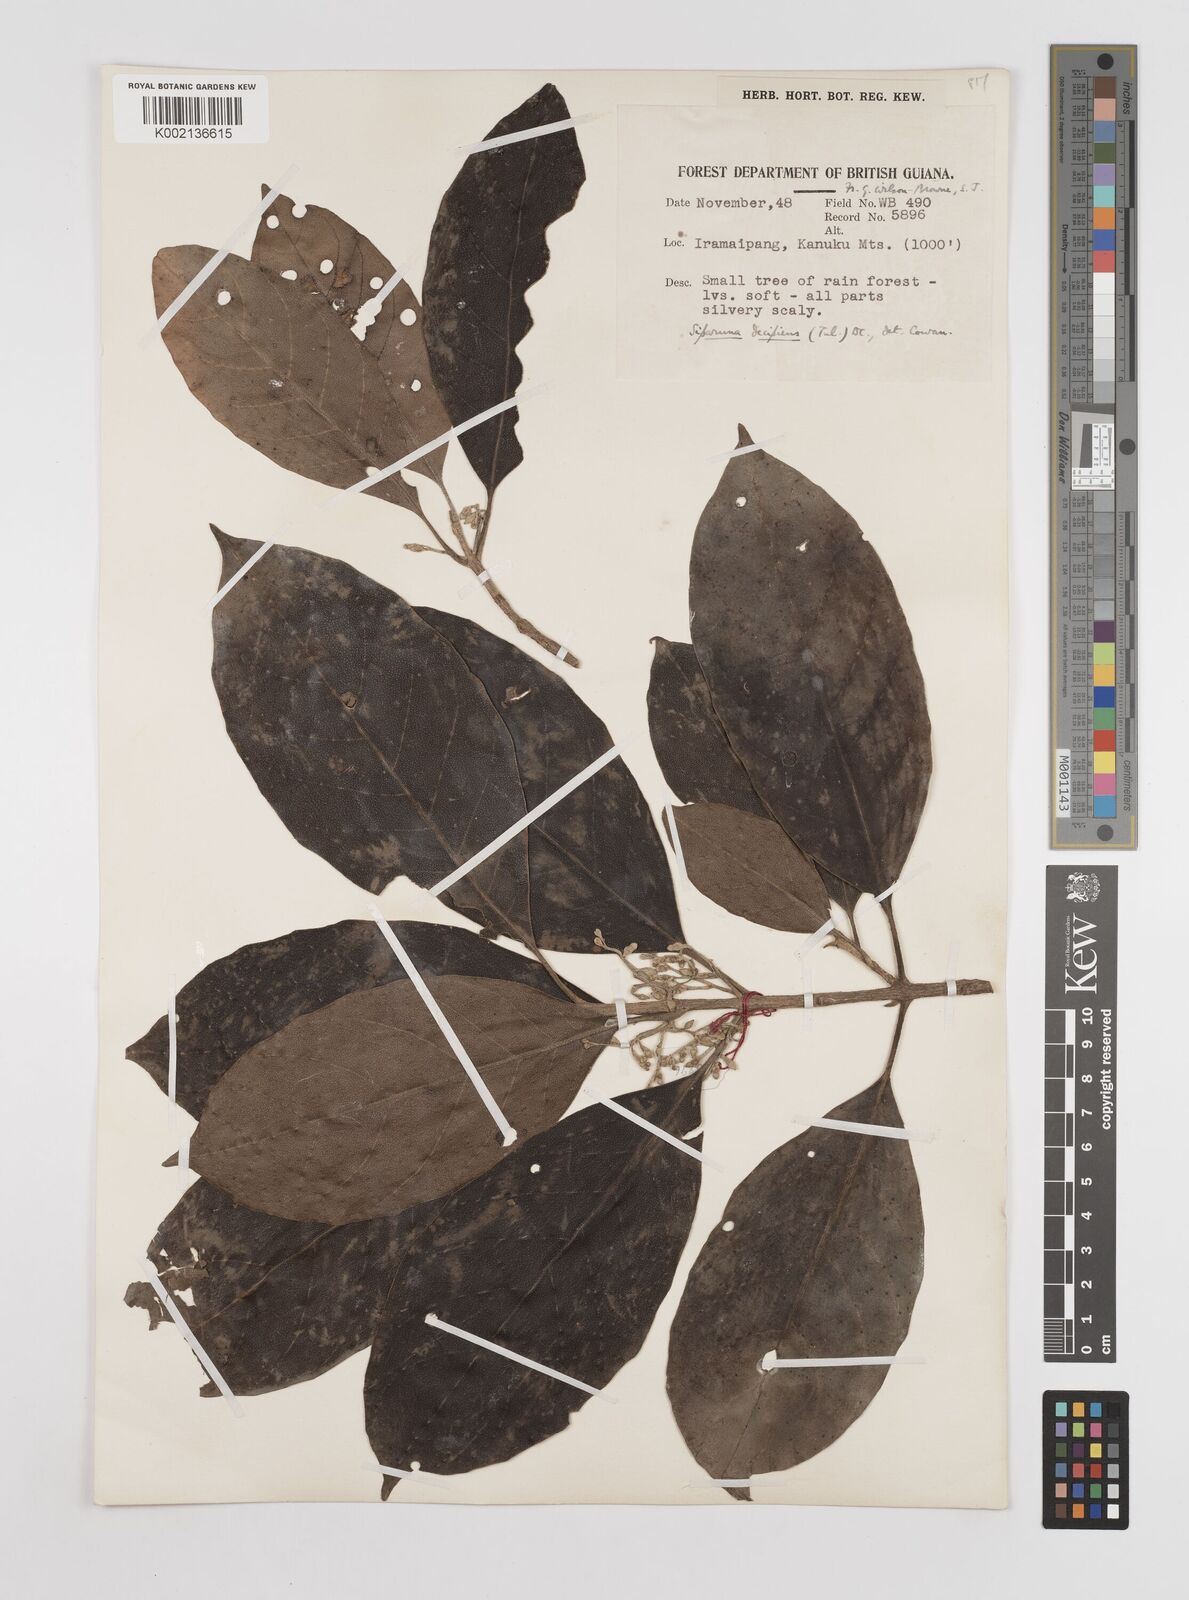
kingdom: Plantae
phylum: Tracheophyta
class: Magnoliopsida
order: Laurales
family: Siparunaceae
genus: Siparuna
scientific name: Siparuna decipiens
